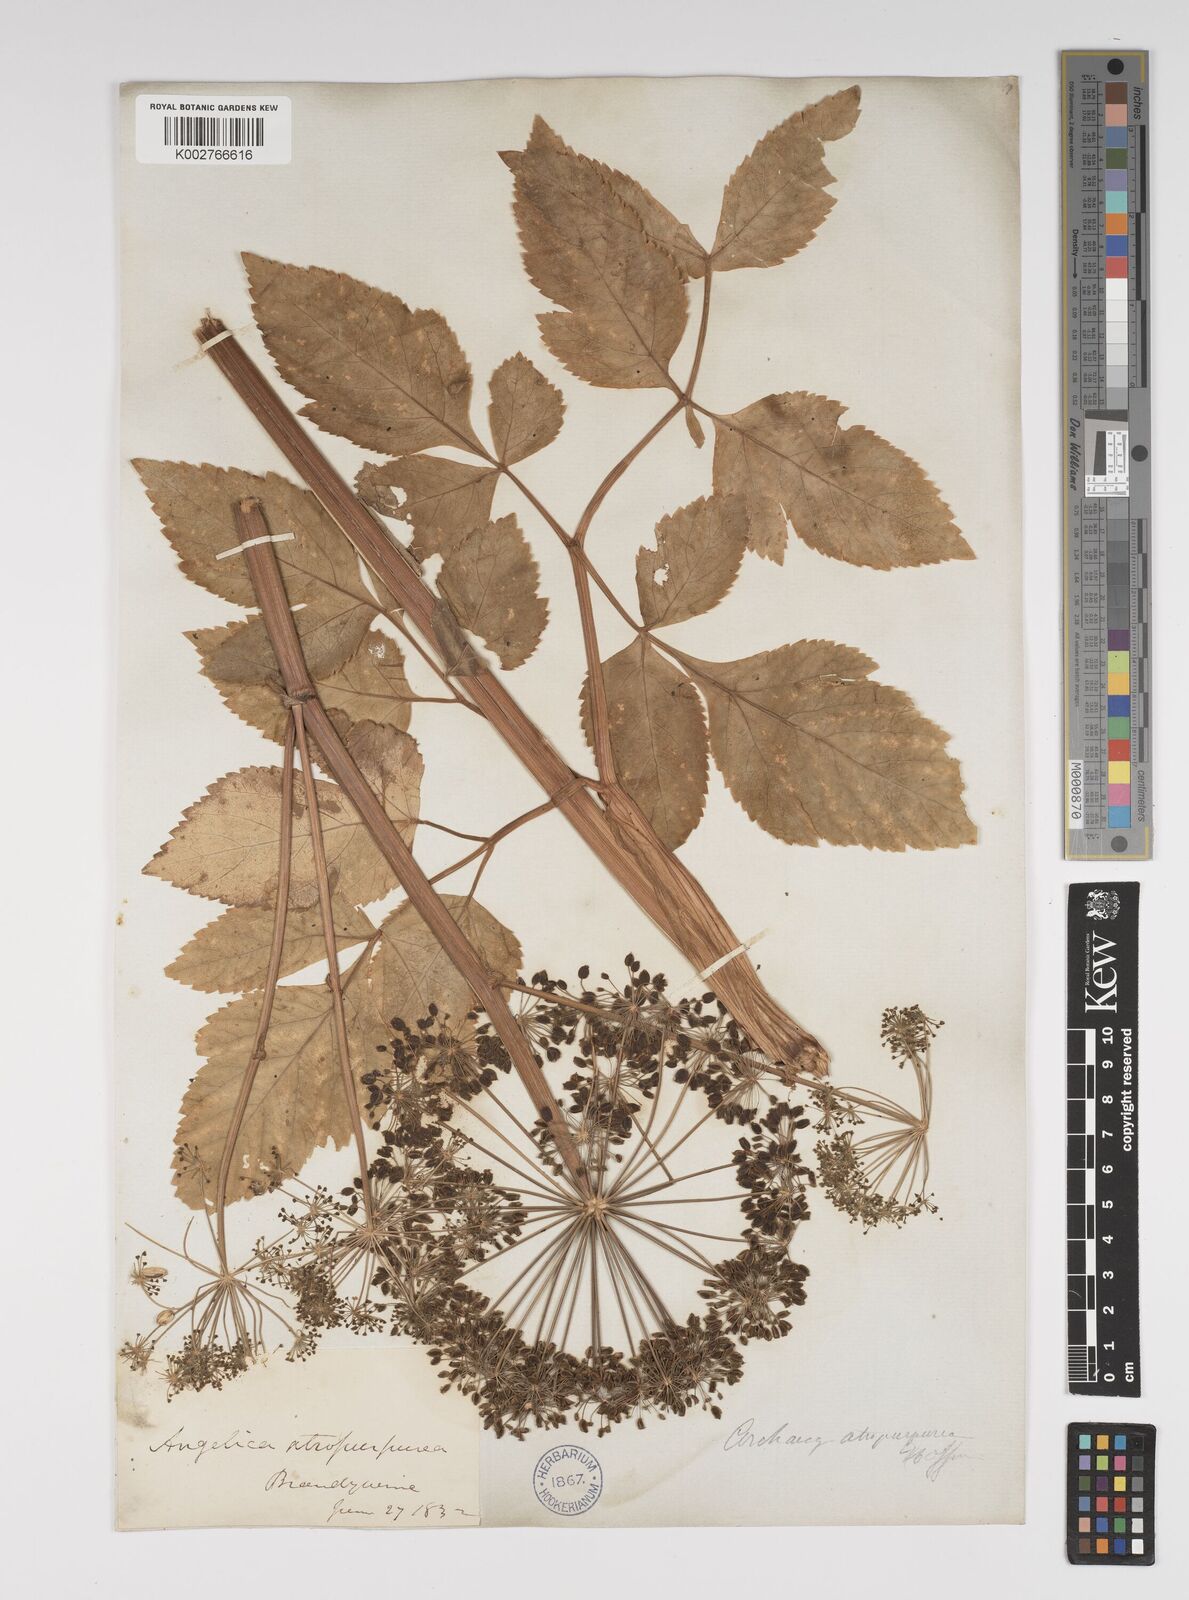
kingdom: Plantae
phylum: Tracheophyta
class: Magnoliopsida
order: Apiales
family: Apiaceae
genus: Angelica
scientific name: Angelica atropurpurea
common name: Great angelica
